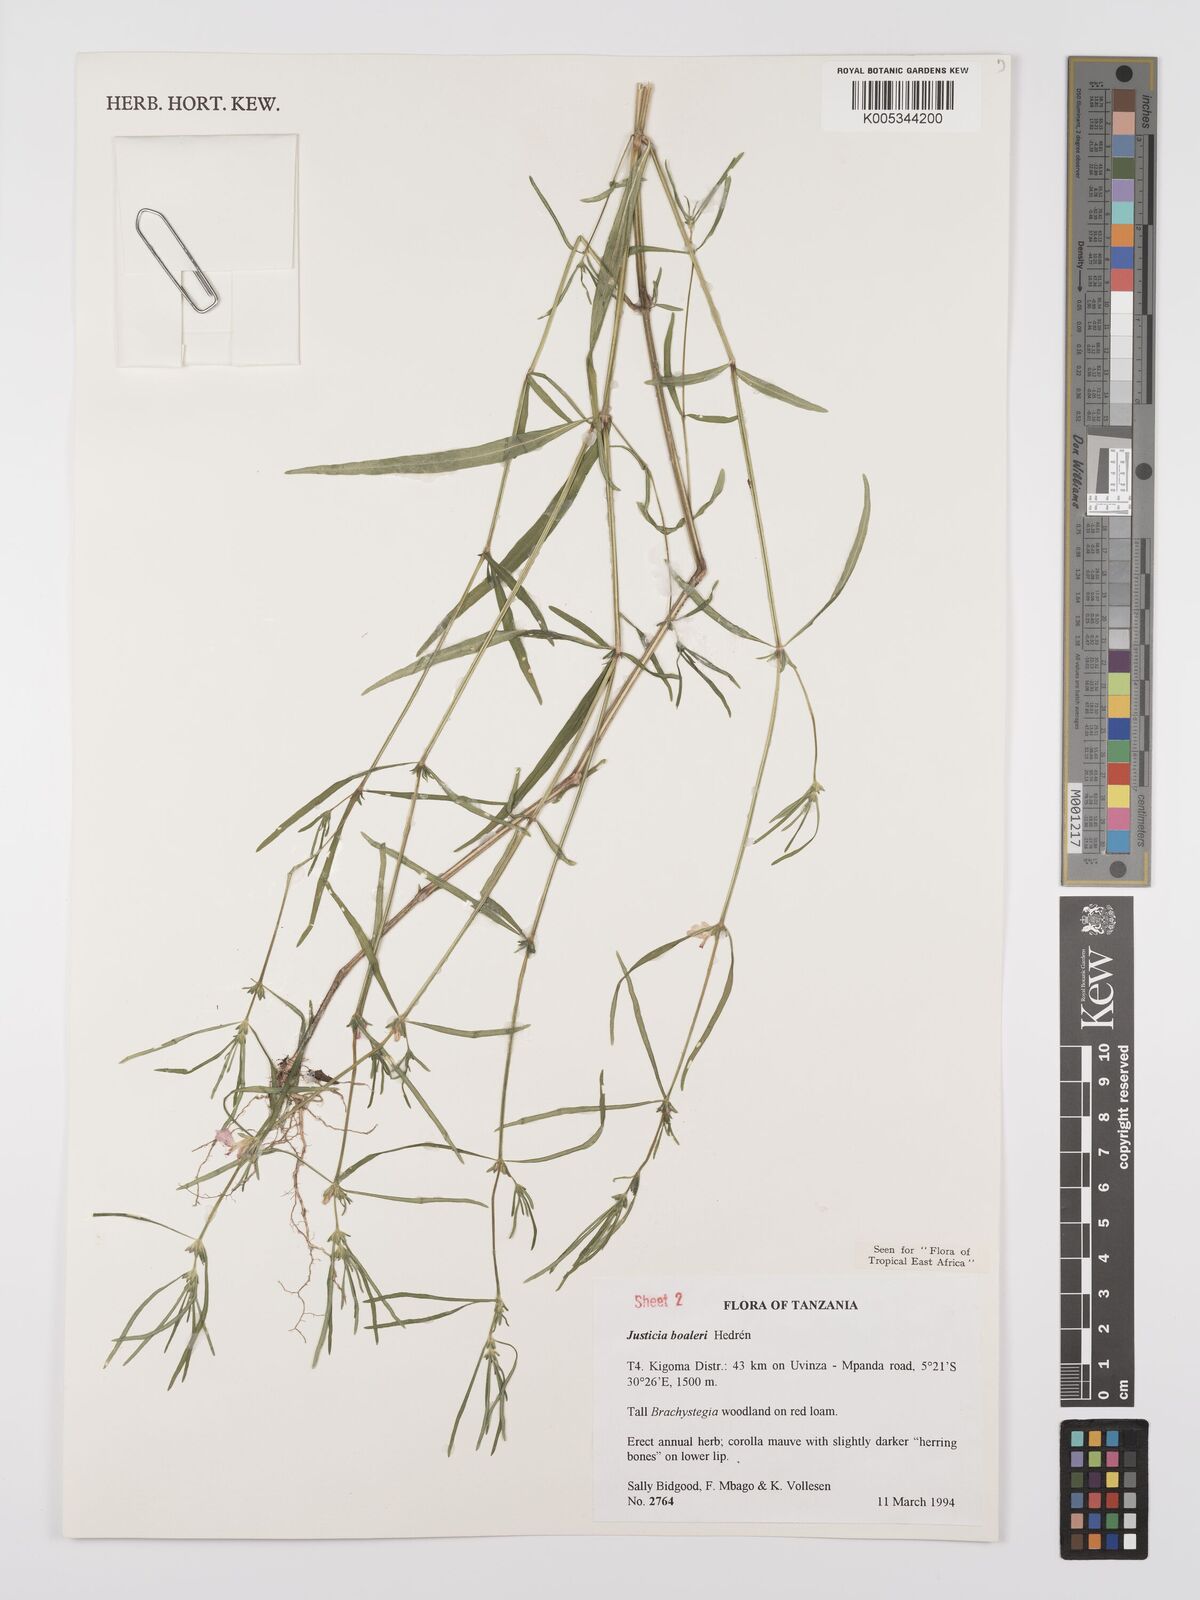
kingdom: Plantae
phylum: Tracheophyta
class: Magnoliopsida
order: Lamiales
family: Acanthaceae
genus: Justicia
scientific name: Justicia boaleri
